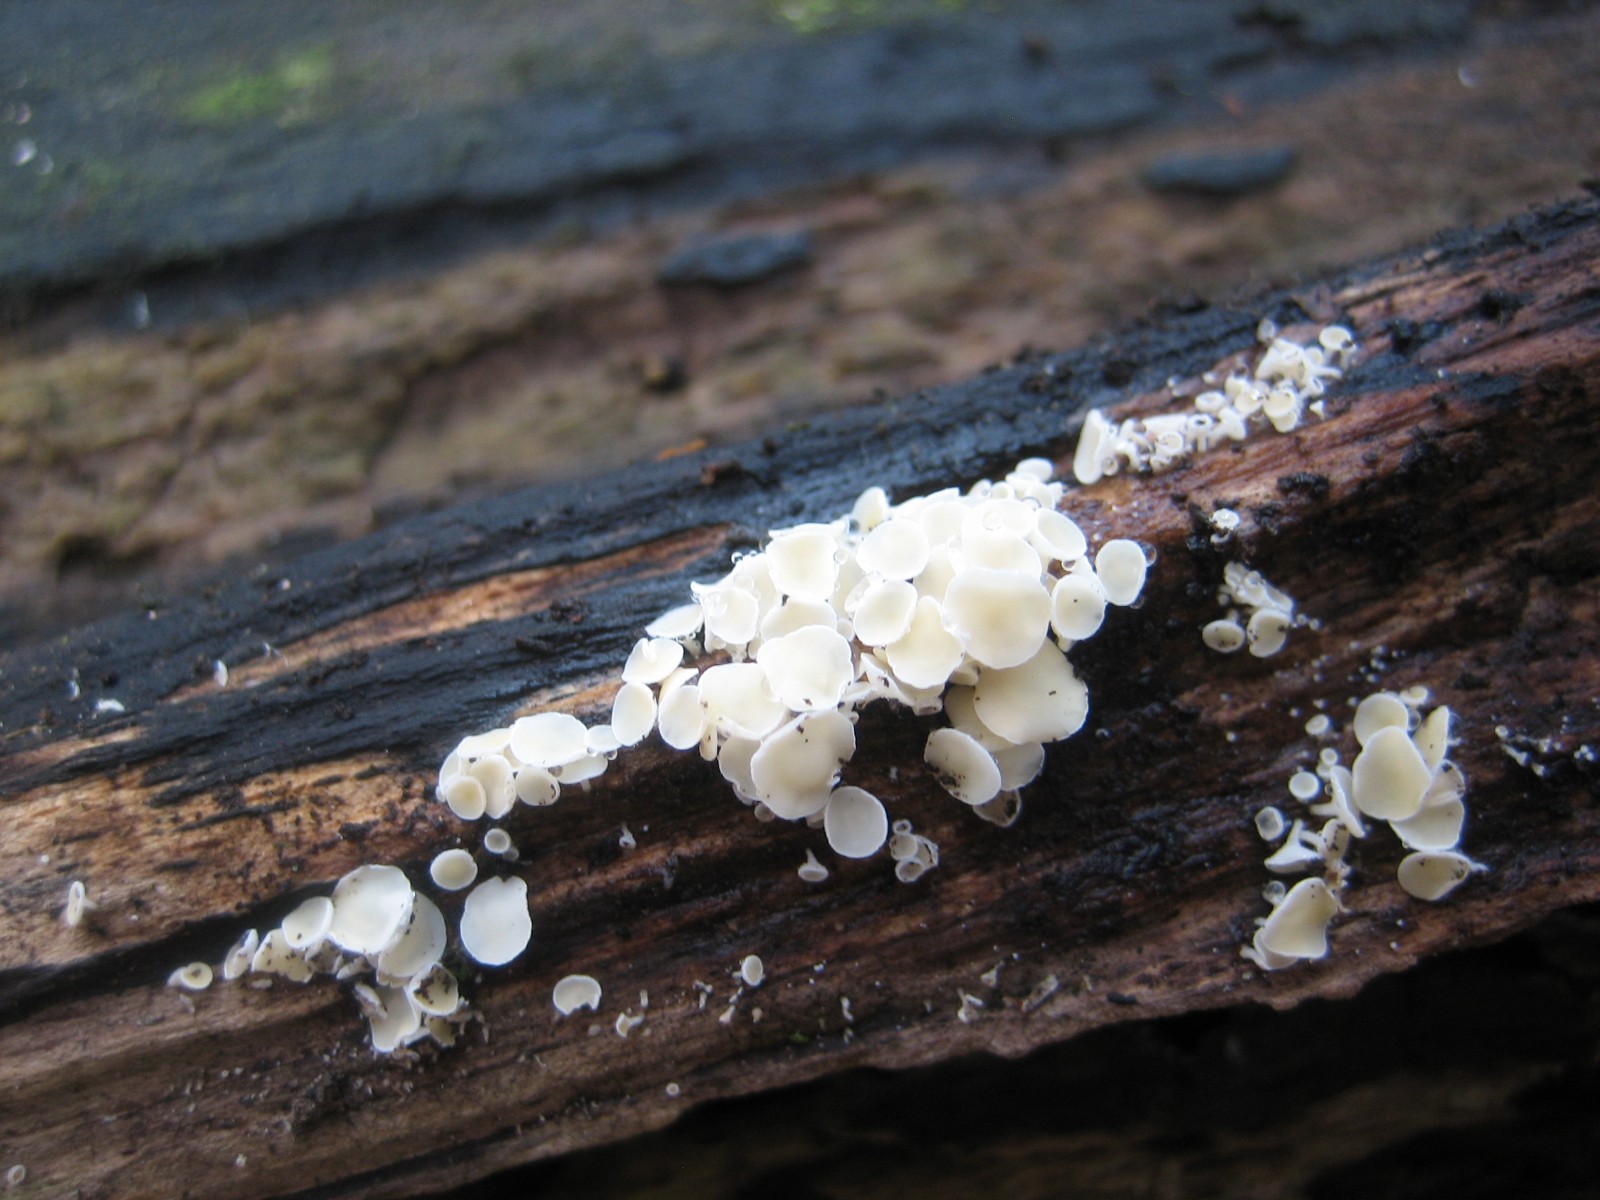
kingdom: Fungi
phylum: Ascomycota
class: Leotiomycetes
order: Helotiales
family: Lachnaceae
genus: Lachnum
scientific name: Lachnum
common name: frynseskive
